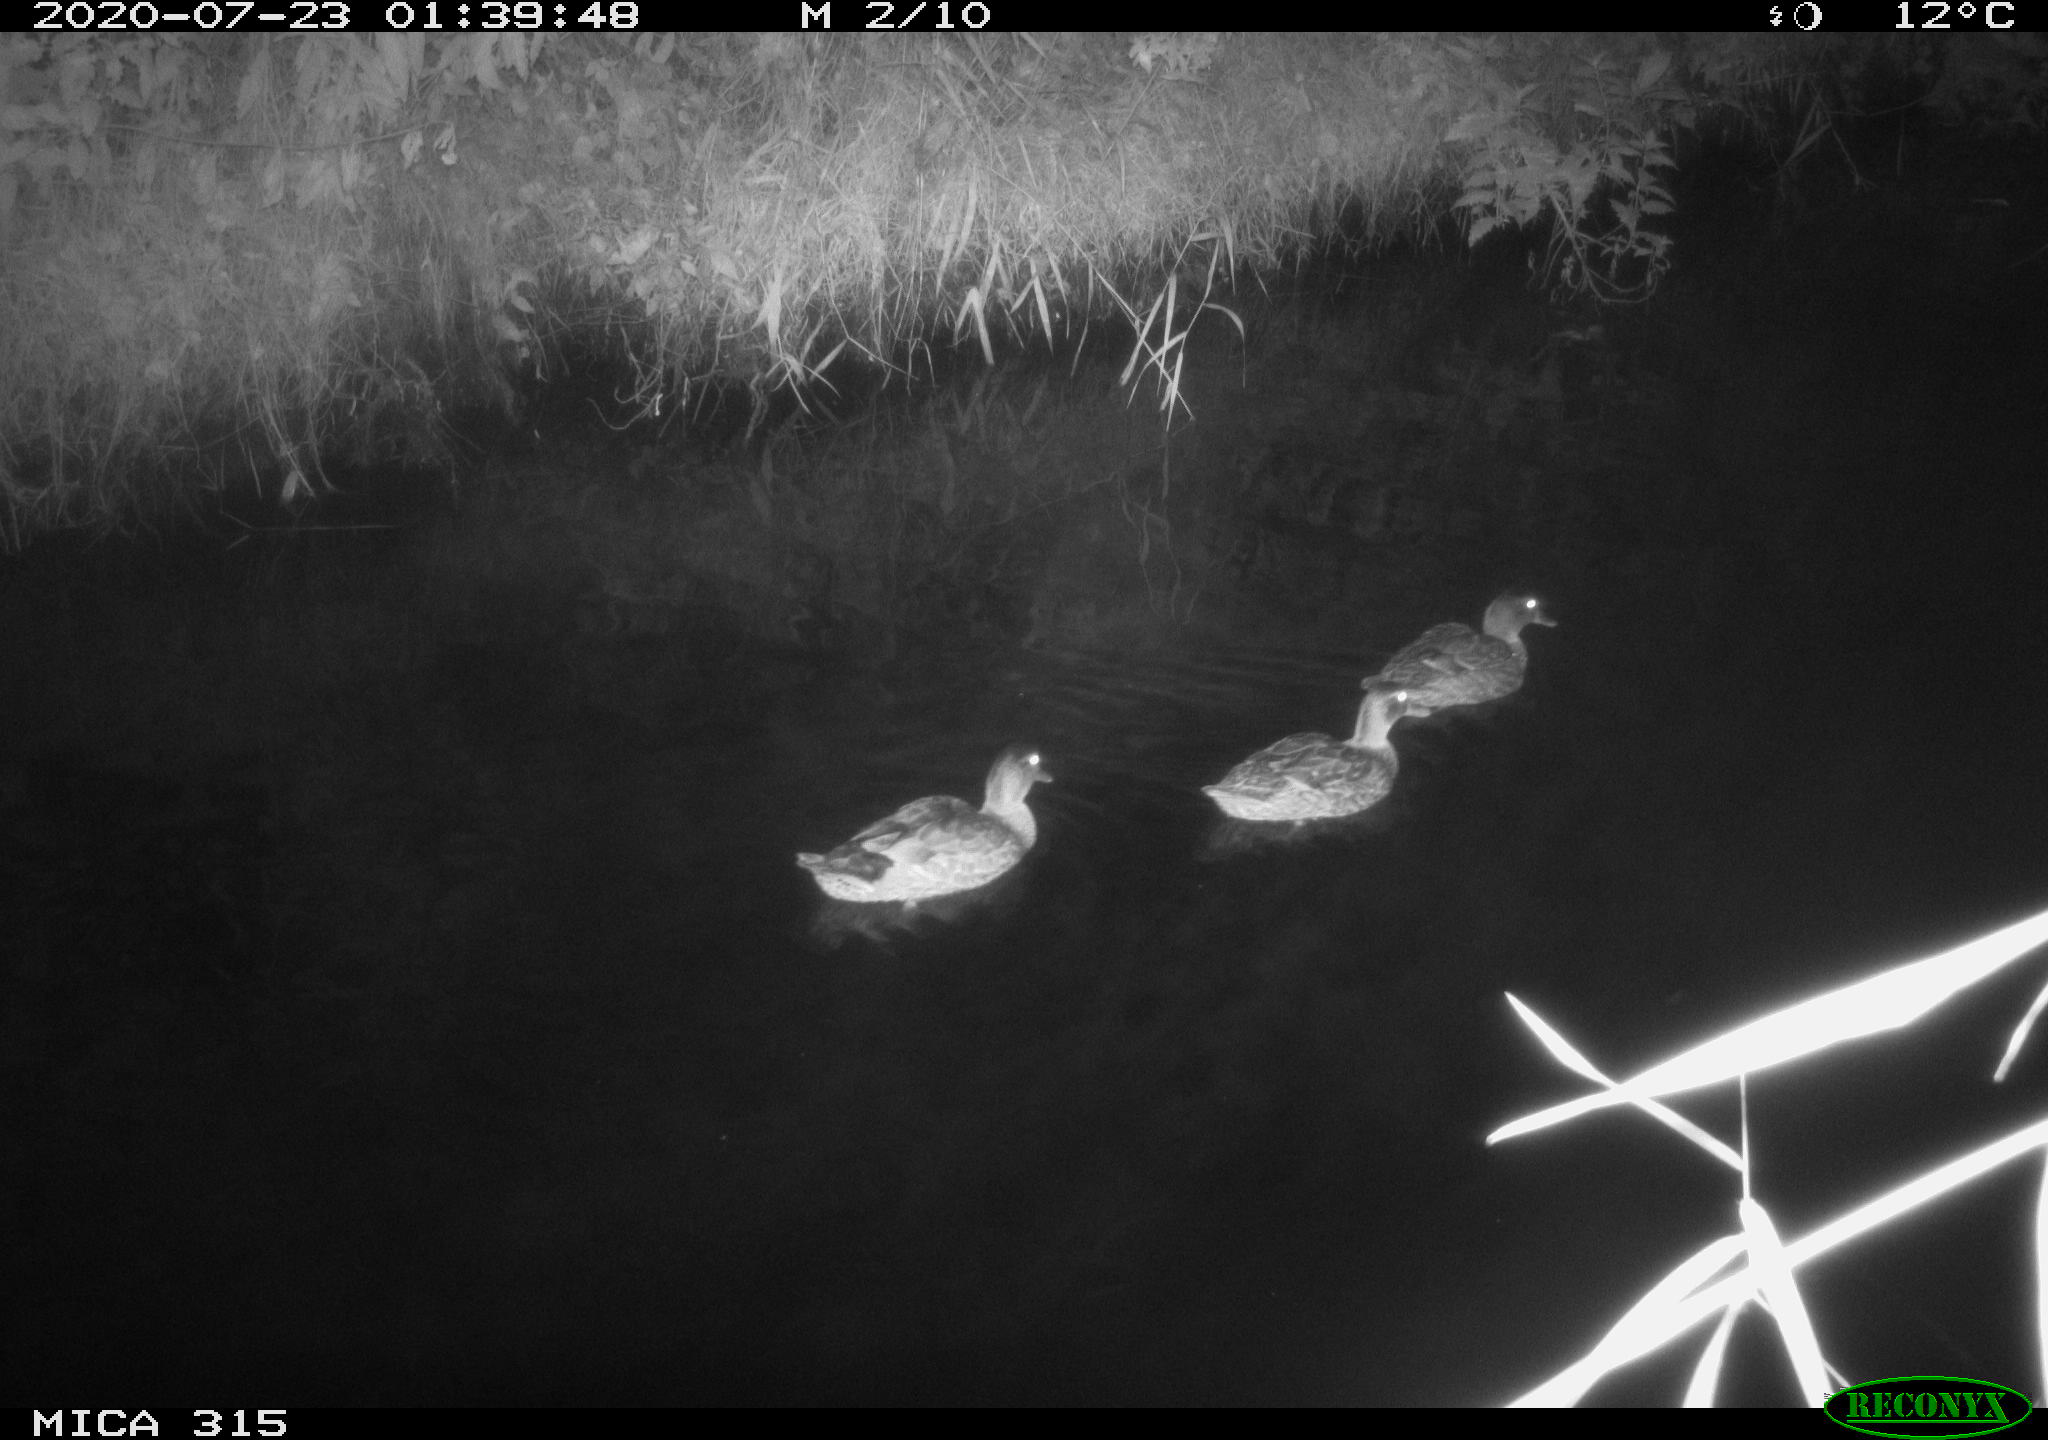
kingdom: Animalia
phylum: Chordata
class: Aves
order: Anseriformes
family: Anatidae
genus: Anas
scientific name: Anas platyrhynchos
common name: Mallard
